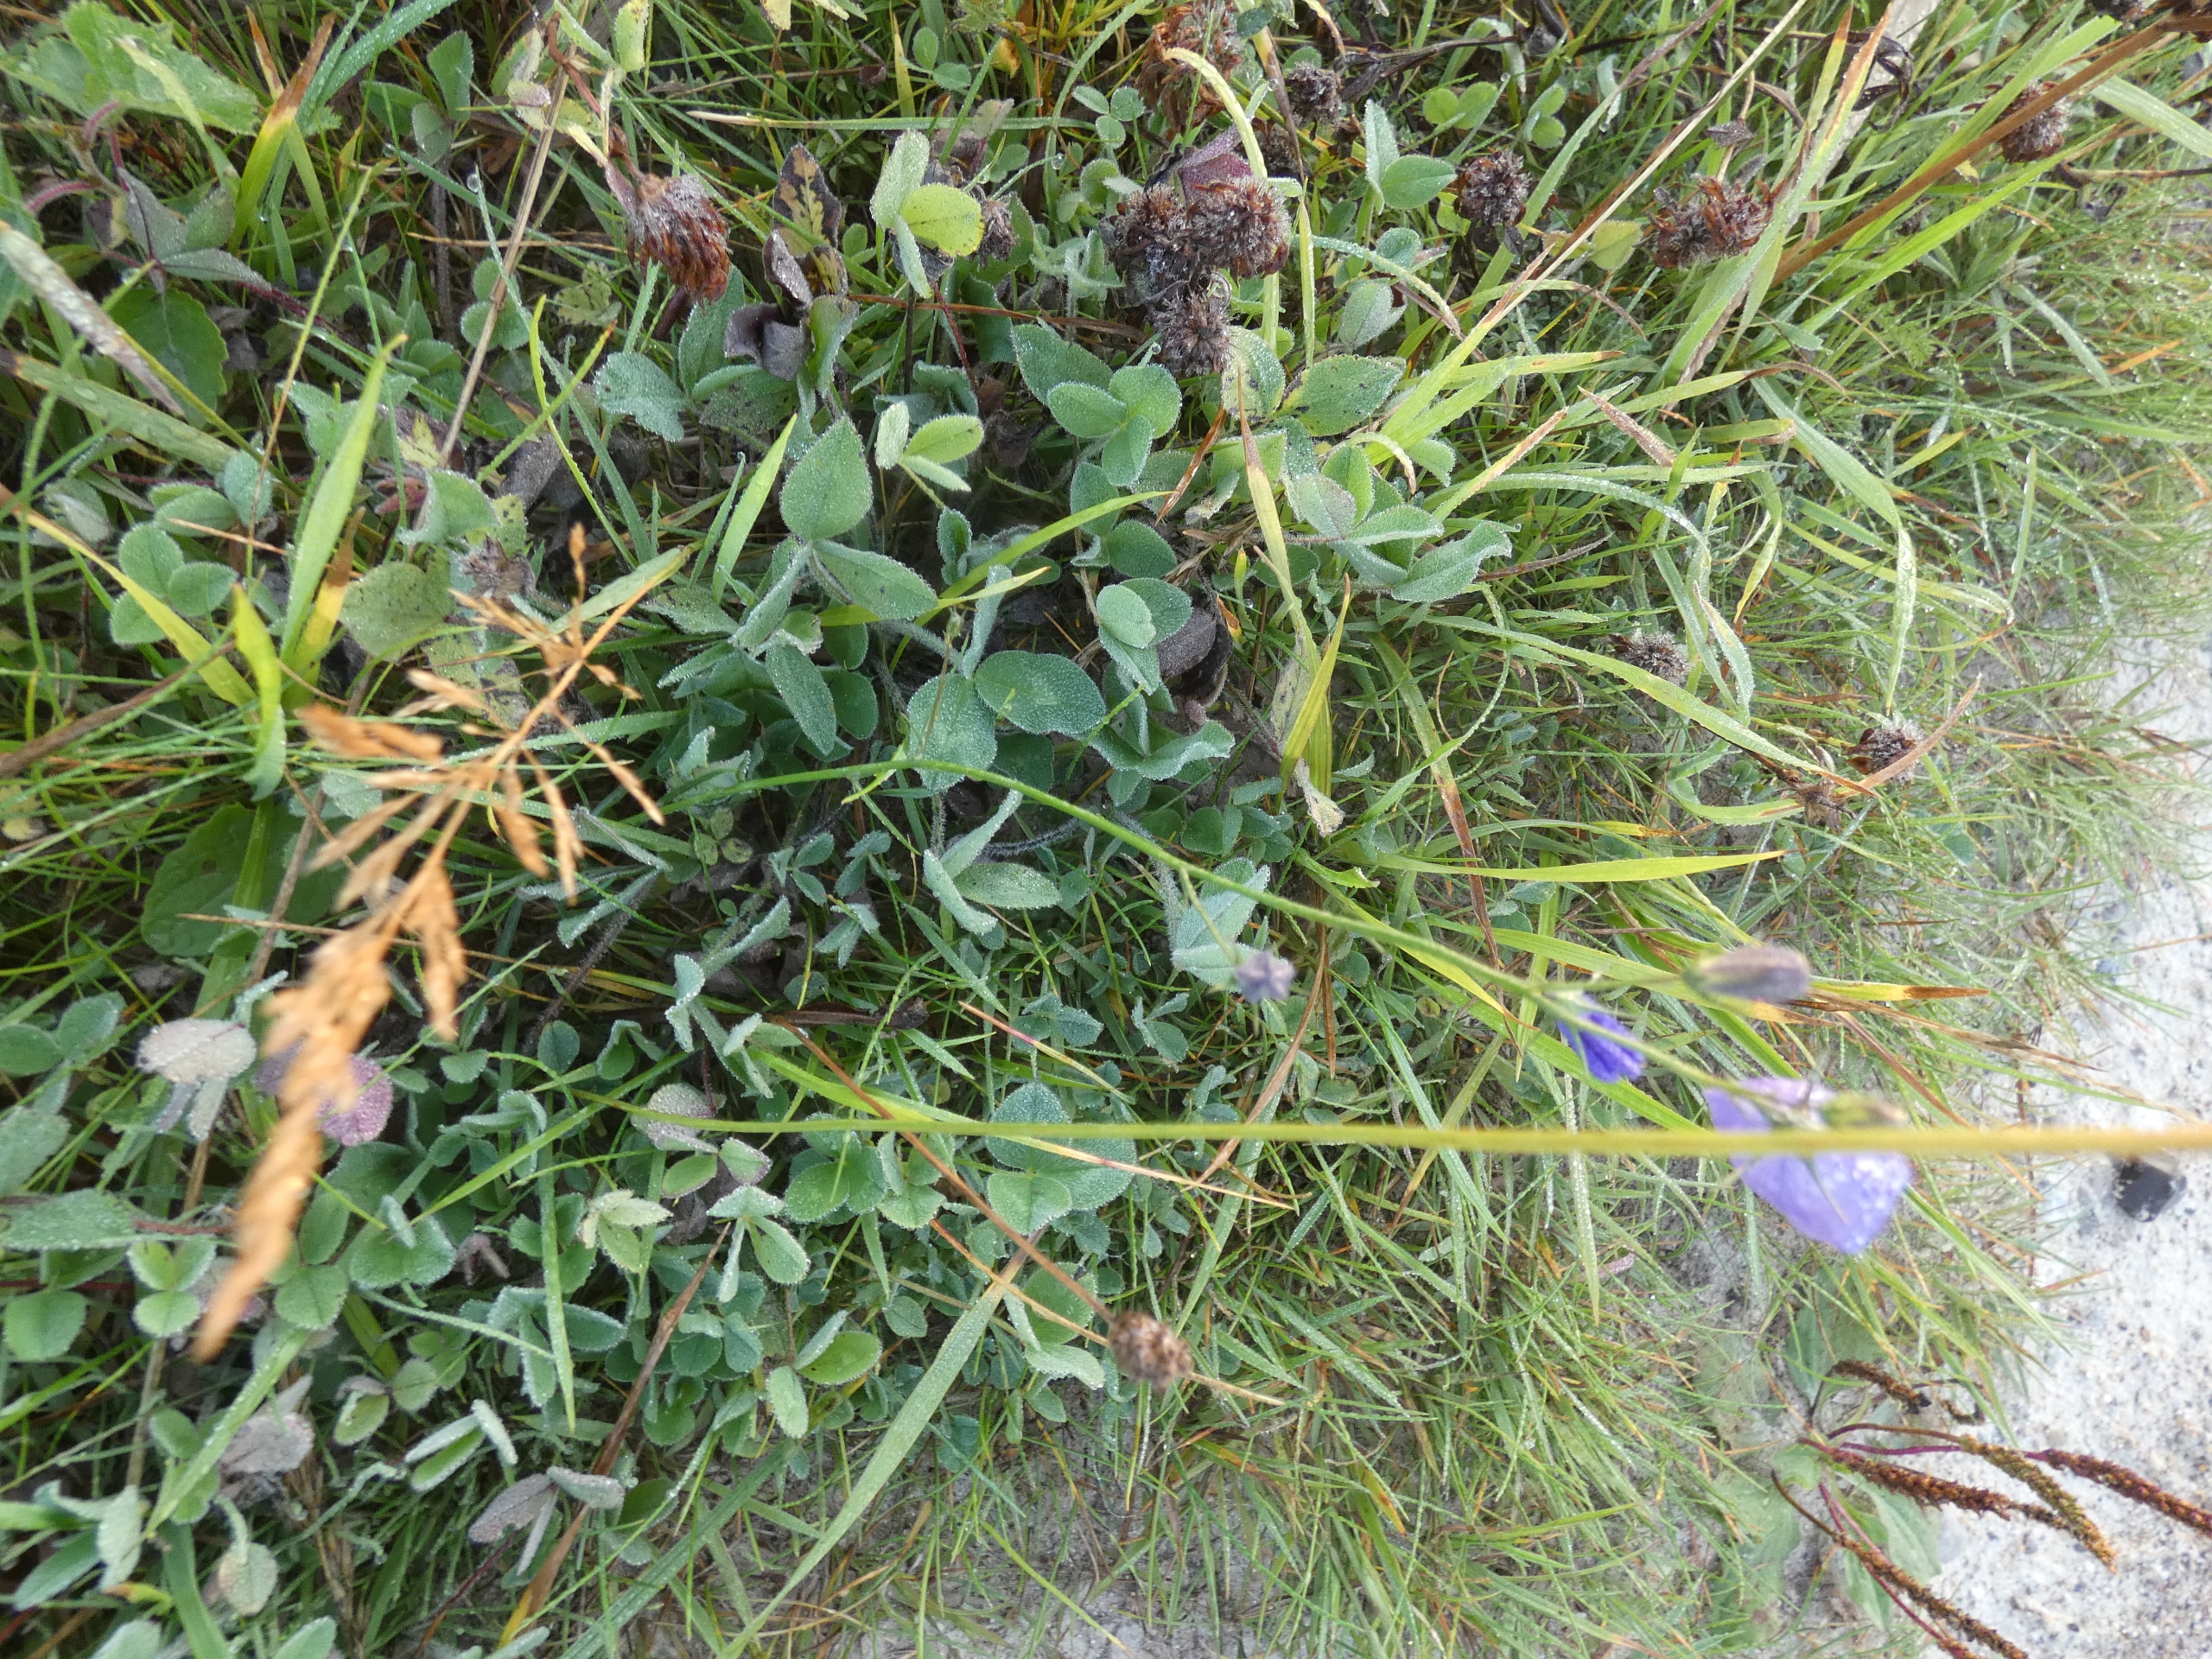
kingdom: Plantae
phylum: Tracheophyta
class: Magnoliopsida
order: Asterales
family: Campanulaceae
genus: Campanula
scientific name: Campanula rotundifolia
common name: Liden klokke
